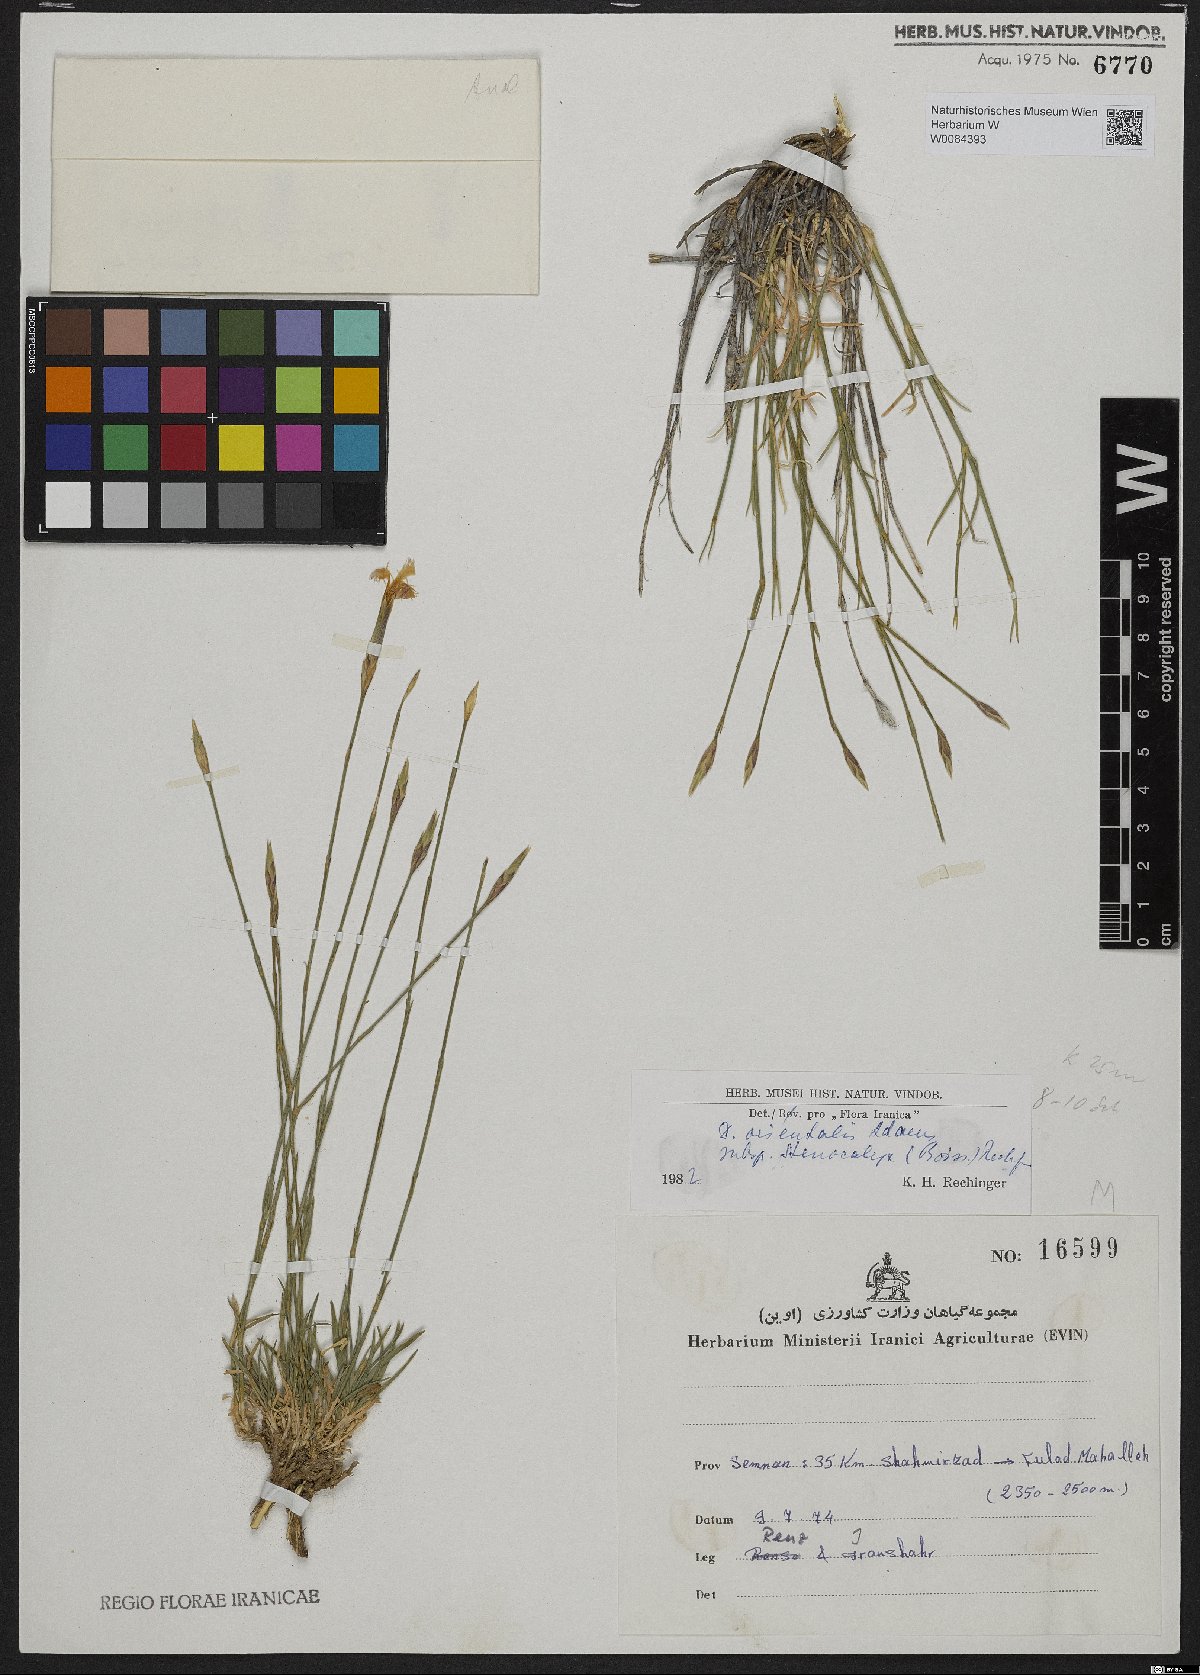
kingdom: Plantae
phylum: Tracheophyta
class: Magnoliopsida
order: Caryophyllales
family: Caryophyllaceae
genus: Dianthus
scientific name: Dianthus orientalis
